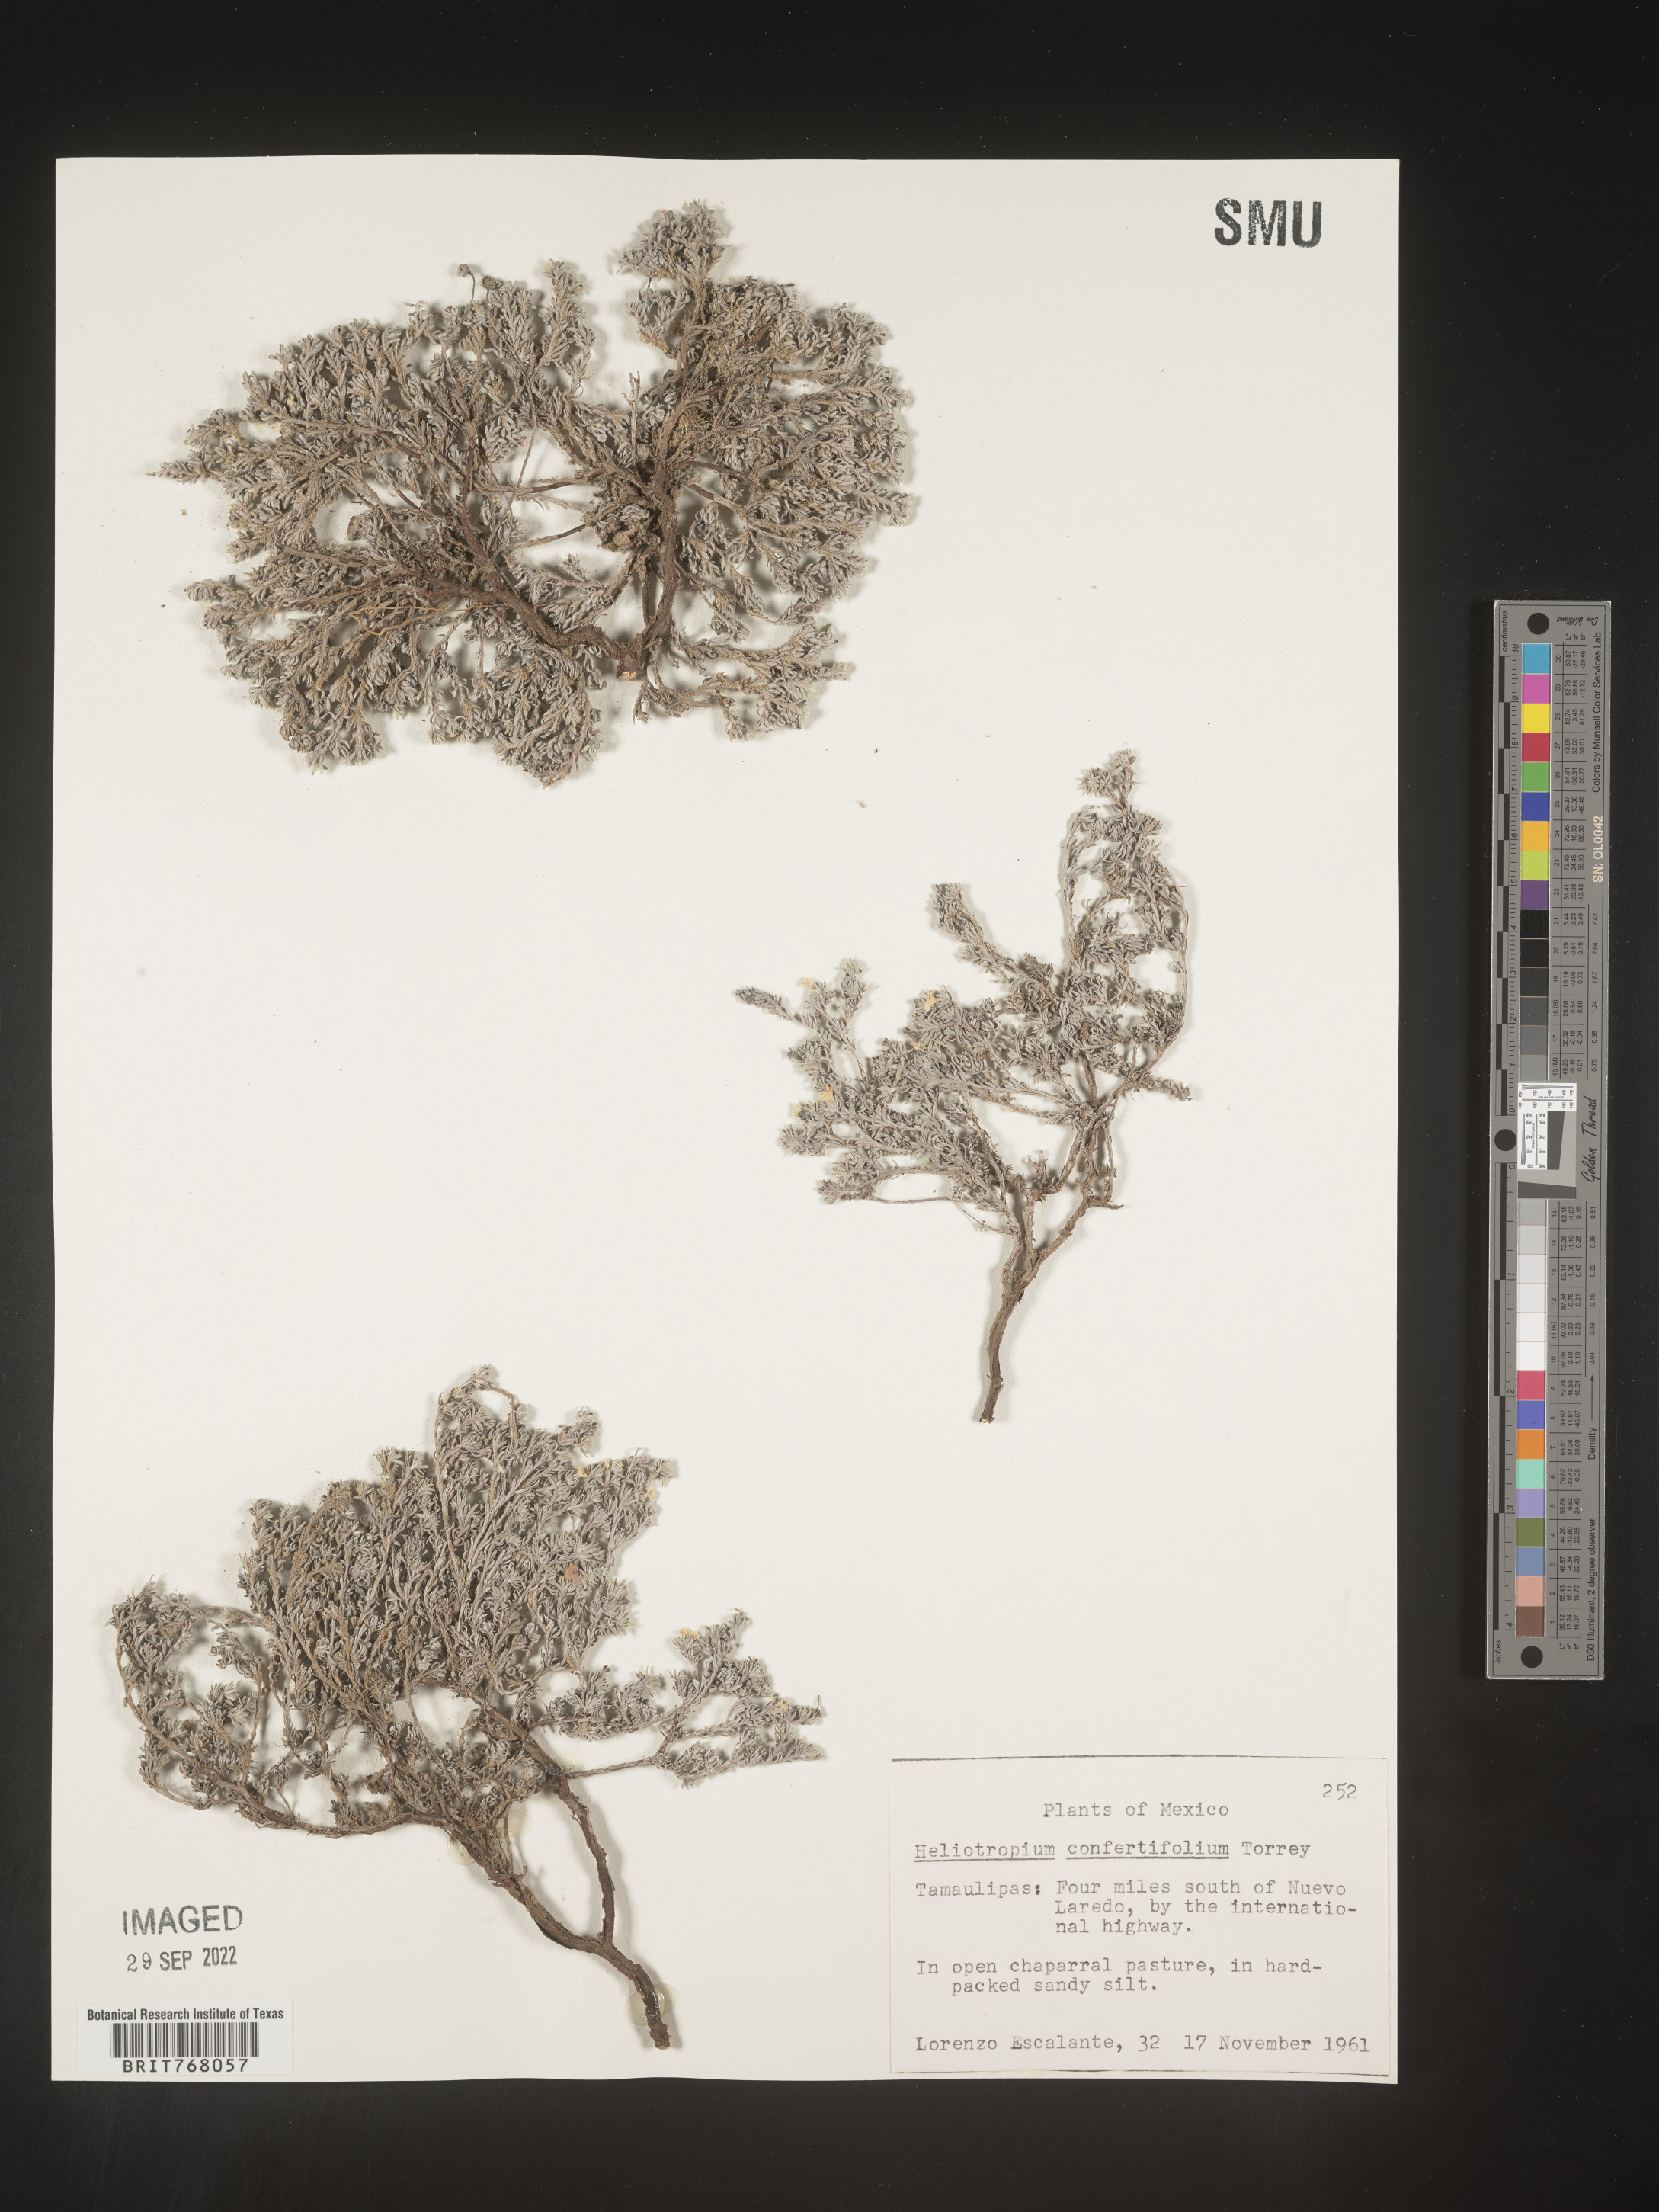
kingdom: Plantae
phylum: Tracheophyta
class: Magnoliopsida
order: Boraginales
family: Heliotropiaceae
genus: Heliotropium
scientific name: Heliotropium
